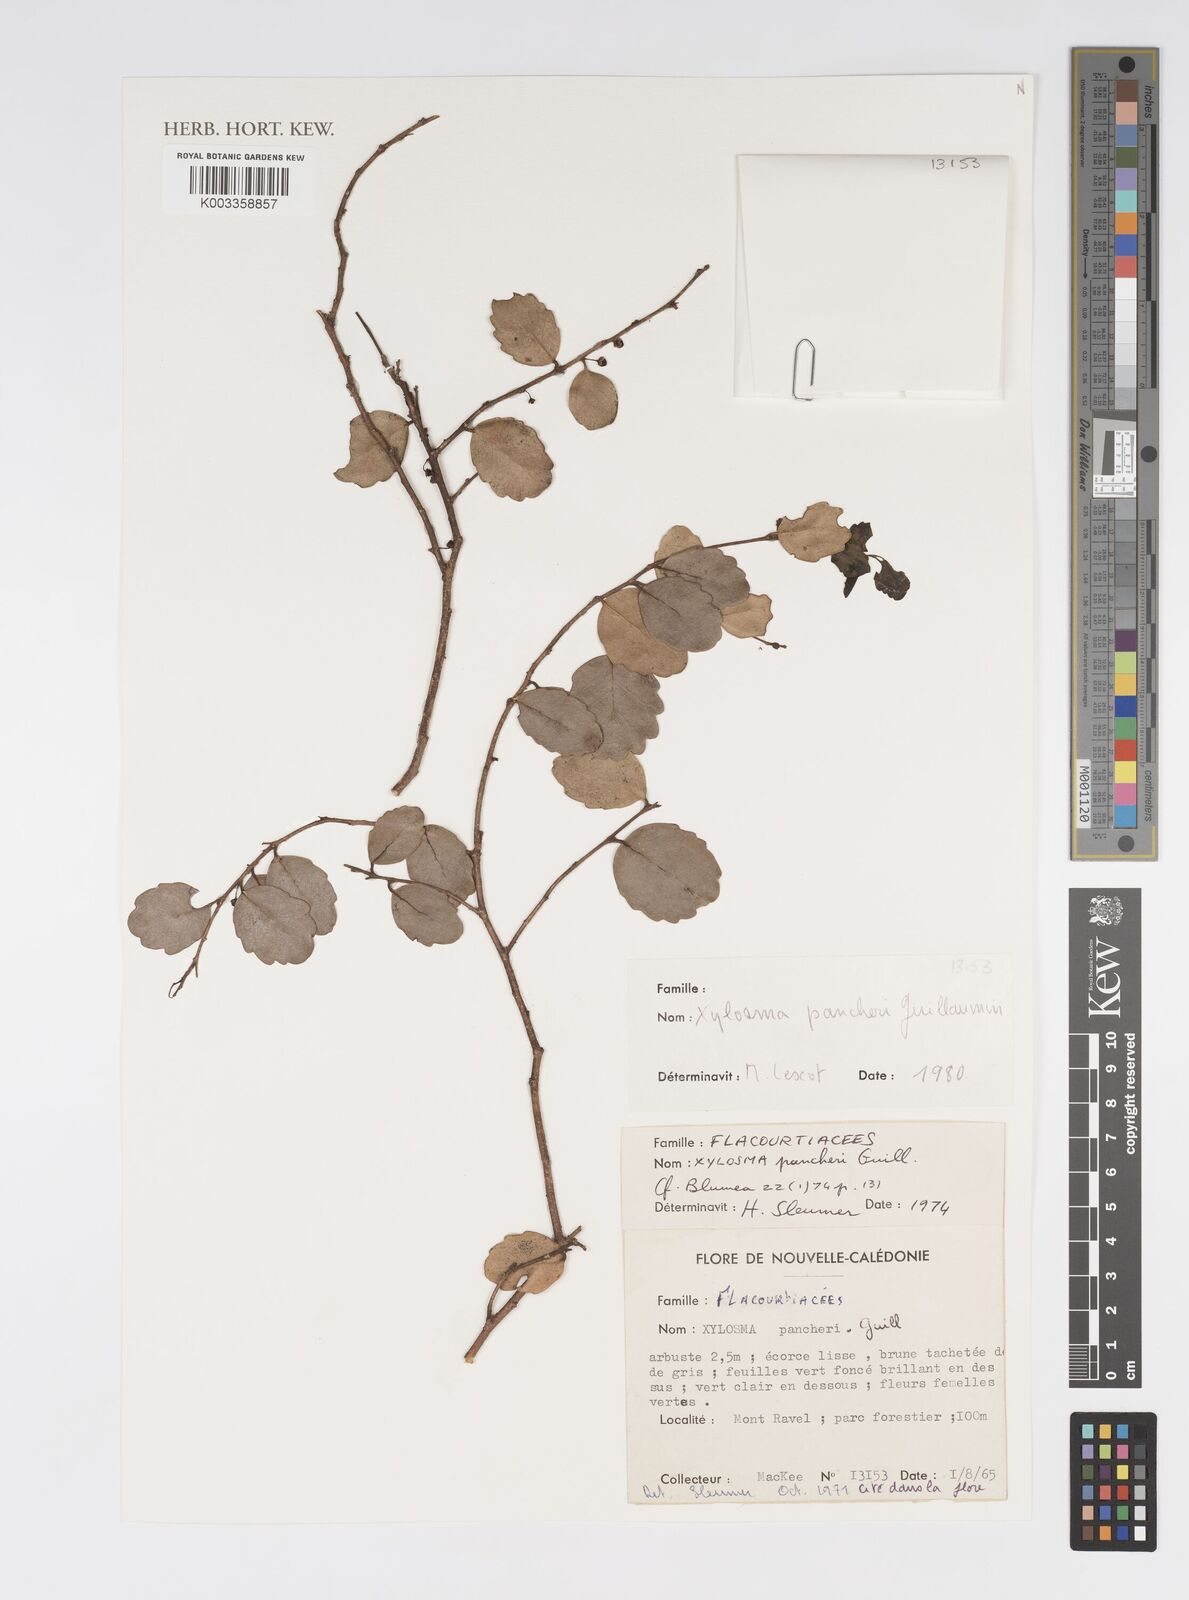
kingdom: Plantae
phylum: Tracheophyta
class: Magnoliopsida
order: Malpighiales
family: Salicaceae
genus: Xylosma
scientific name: Xylosma pancheri
